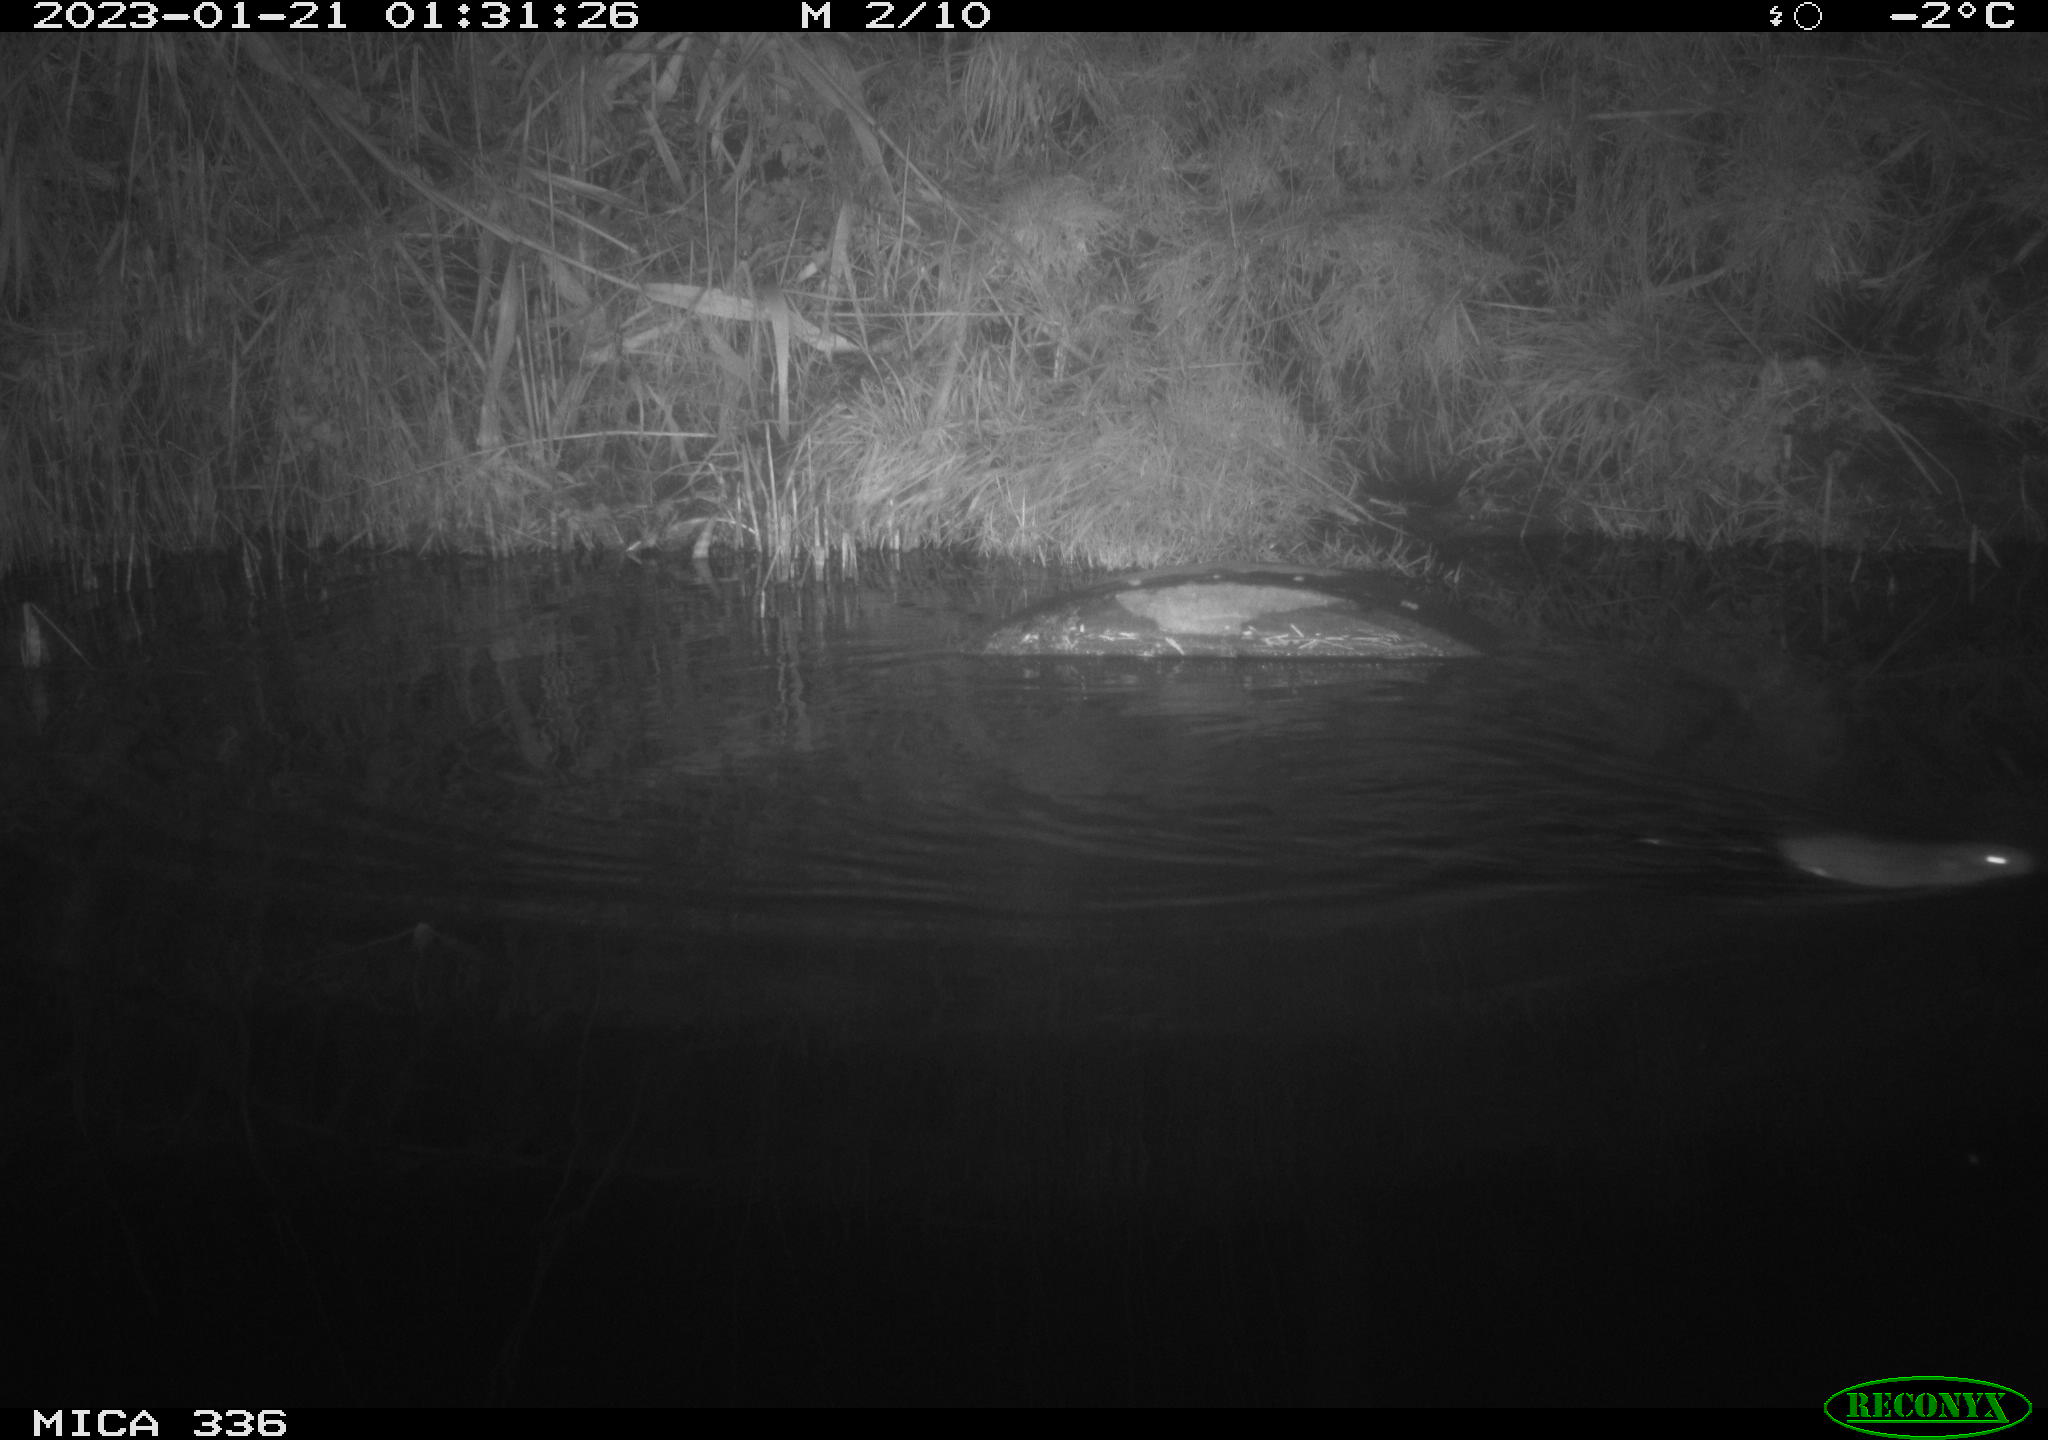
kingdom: Animalia
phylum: Chordata
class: Mammalia
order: Rodentia
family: Muridae
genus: Rattus
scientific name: Rattus norvegicus
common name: Brown rat
